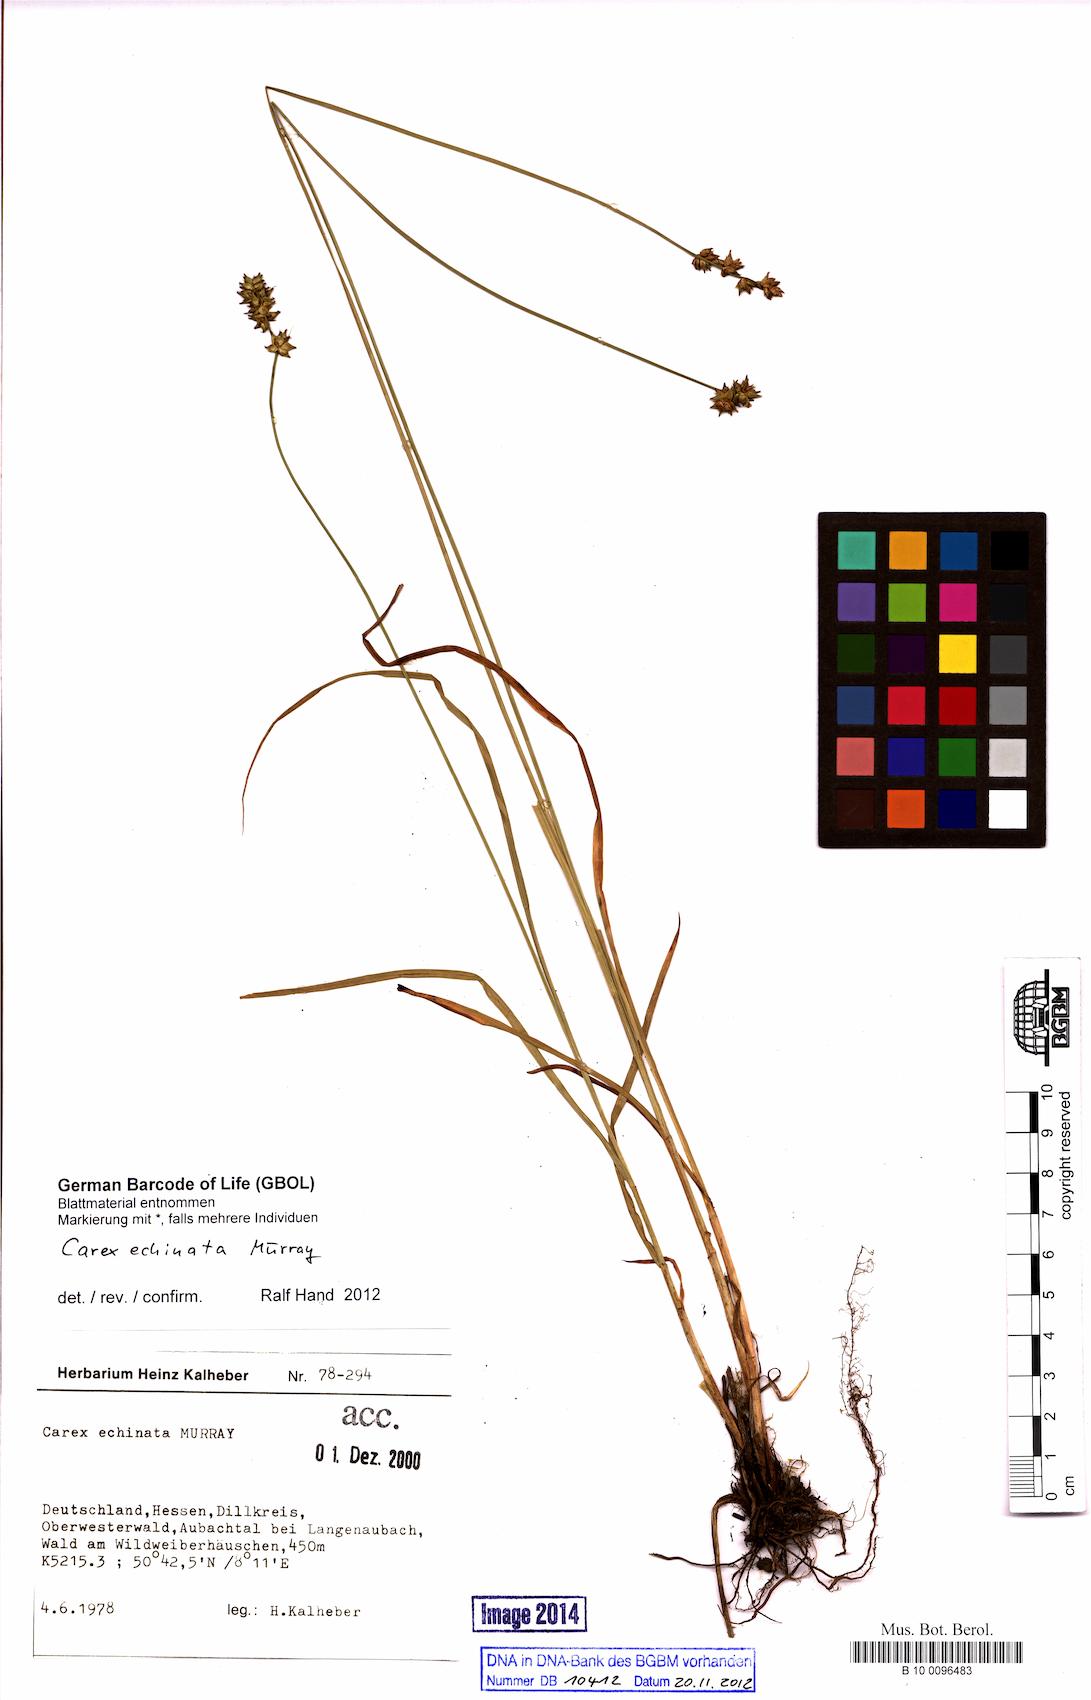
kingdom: Plantae
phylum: Tracheophyta
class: Liliopsida
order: Poales
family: Cyperaceae
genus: Carex
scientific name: Carex echinata
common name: Star sedge
